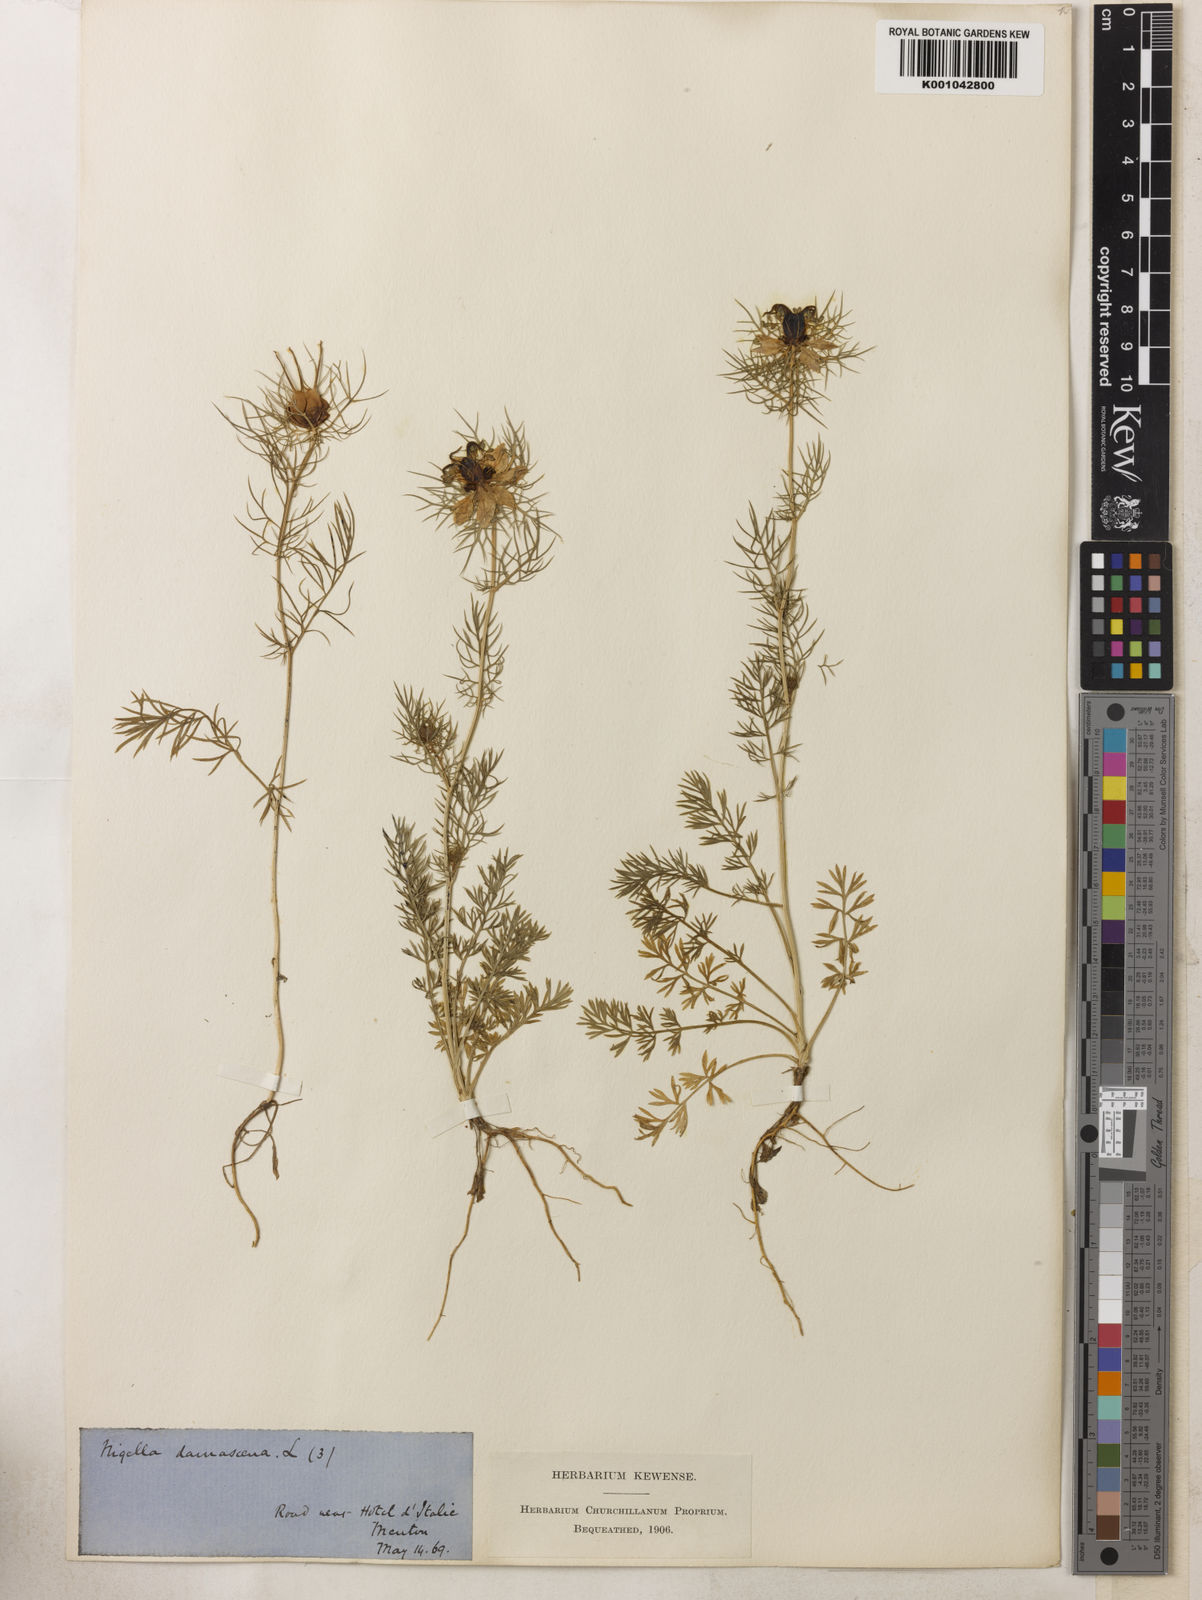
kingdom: Plantae
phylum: Tracheophyta
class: Magnoliopsida
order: Ranunculales
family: Ranunculaceae
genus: Nigella
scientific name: Nigella damascena
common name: Love-in-a-mist
